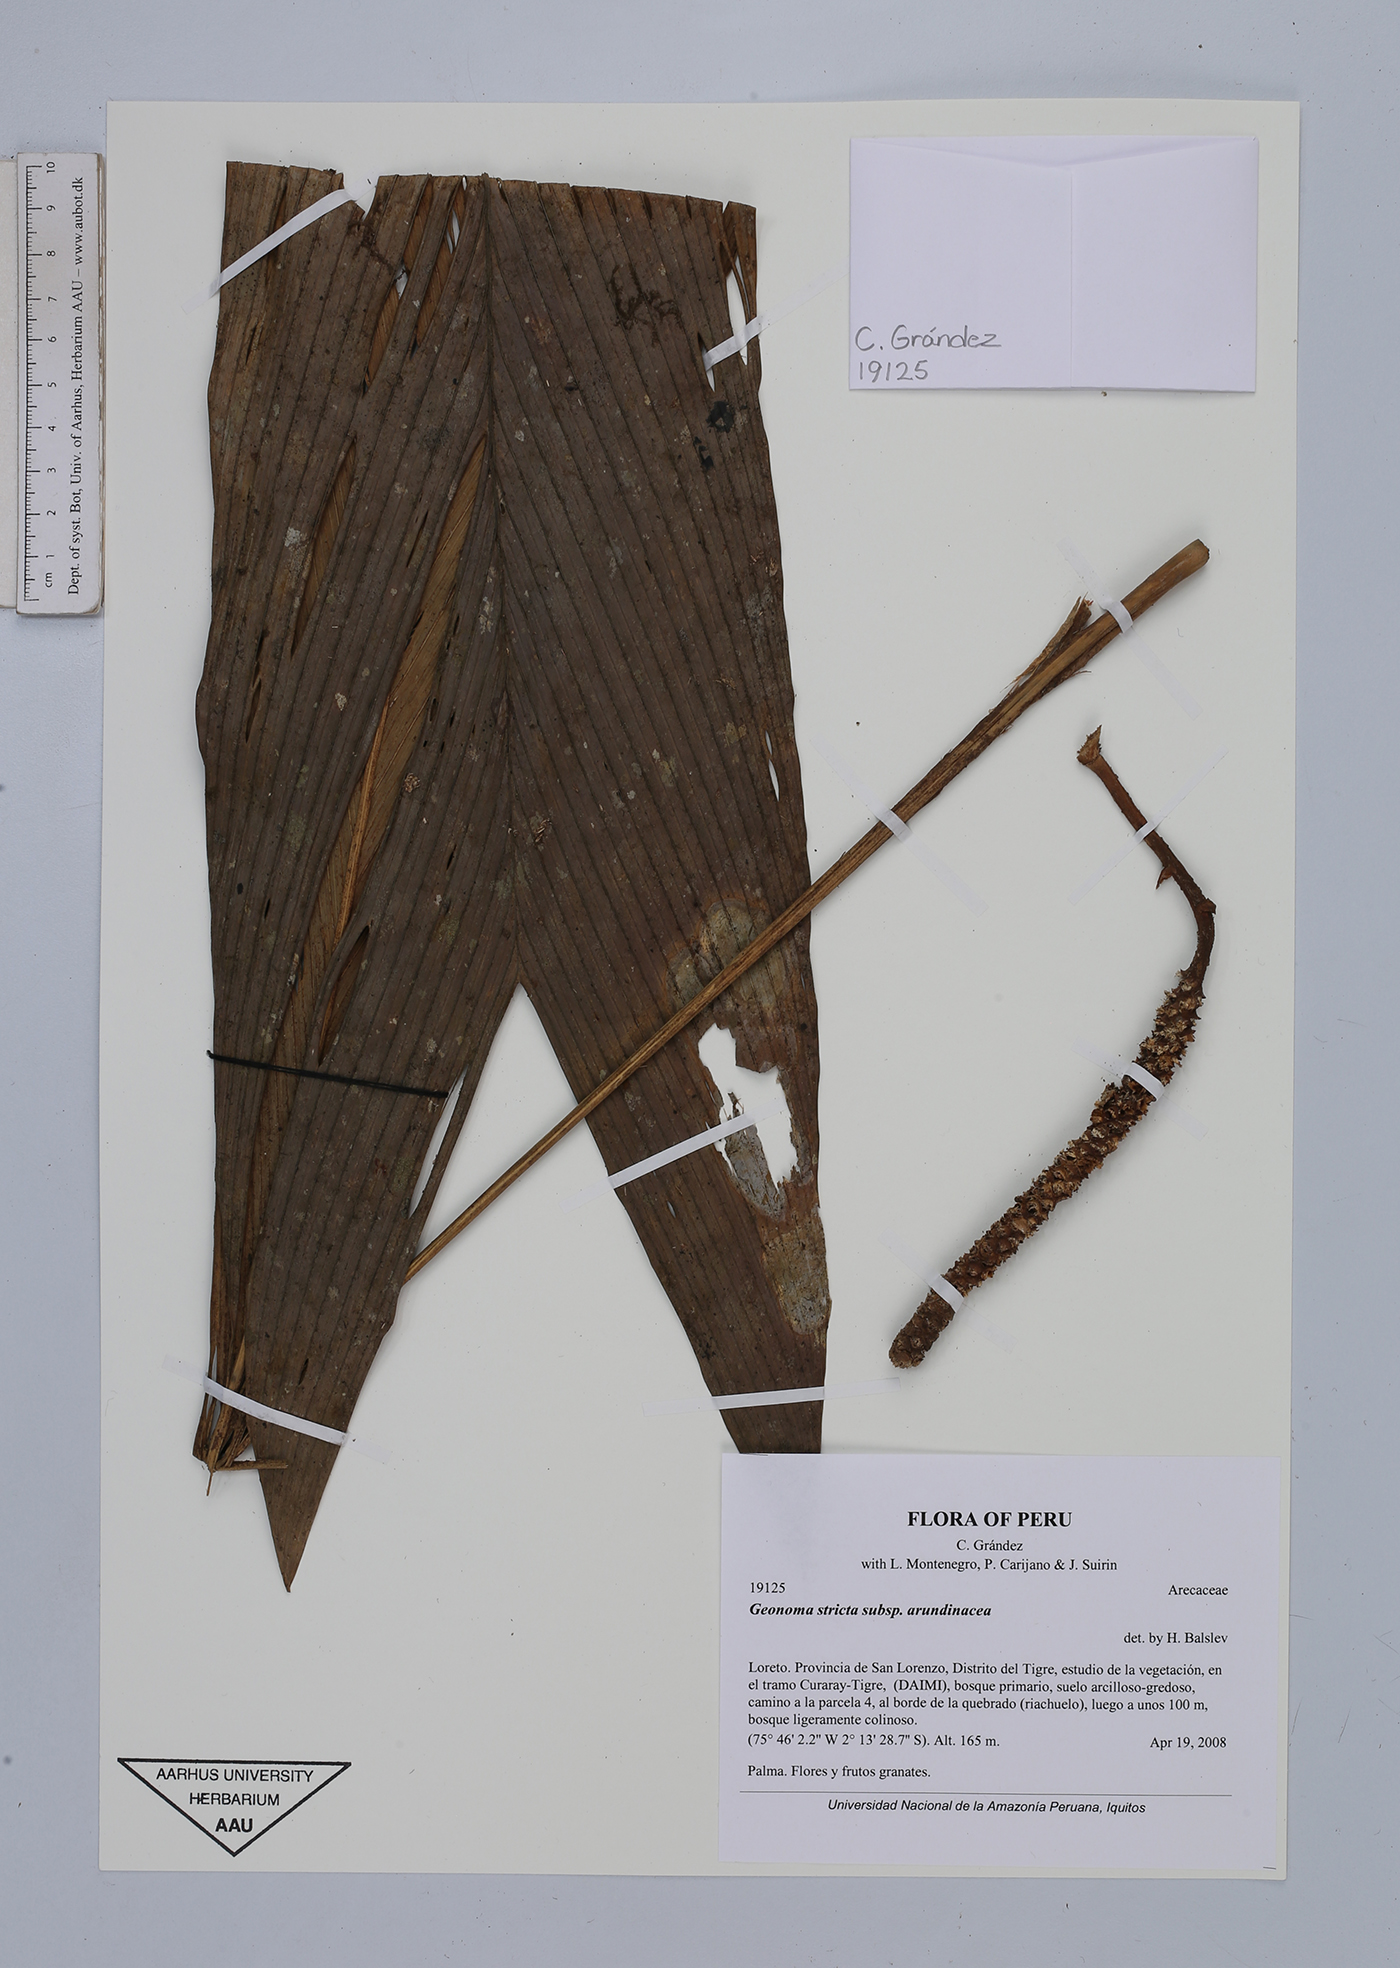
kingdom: Plantae
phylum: Tracheophyta
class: Liliopsida
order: Arecales
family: Arecaceae
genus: Geonoma
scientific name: Geonoma stricta
